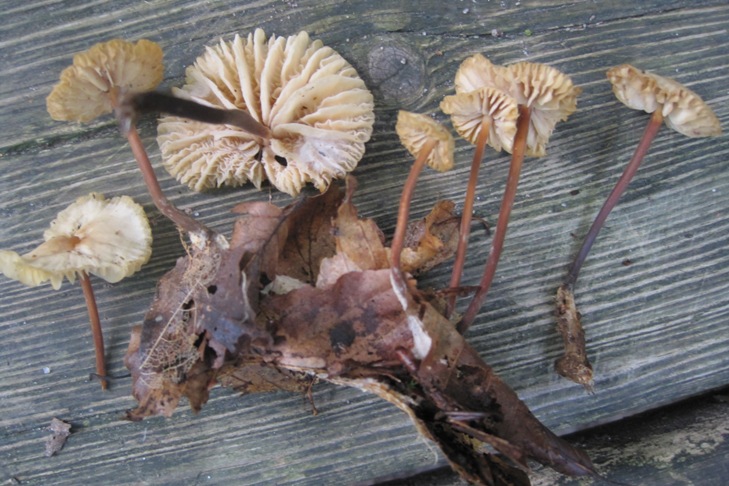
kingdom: Fungi
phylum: Basidiomycota
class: Agaricomycetes
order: Agaricales
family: Marasmiaceae
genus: Marasmius
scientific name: Marasmius torquescens
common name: filtfodet bruskhat
